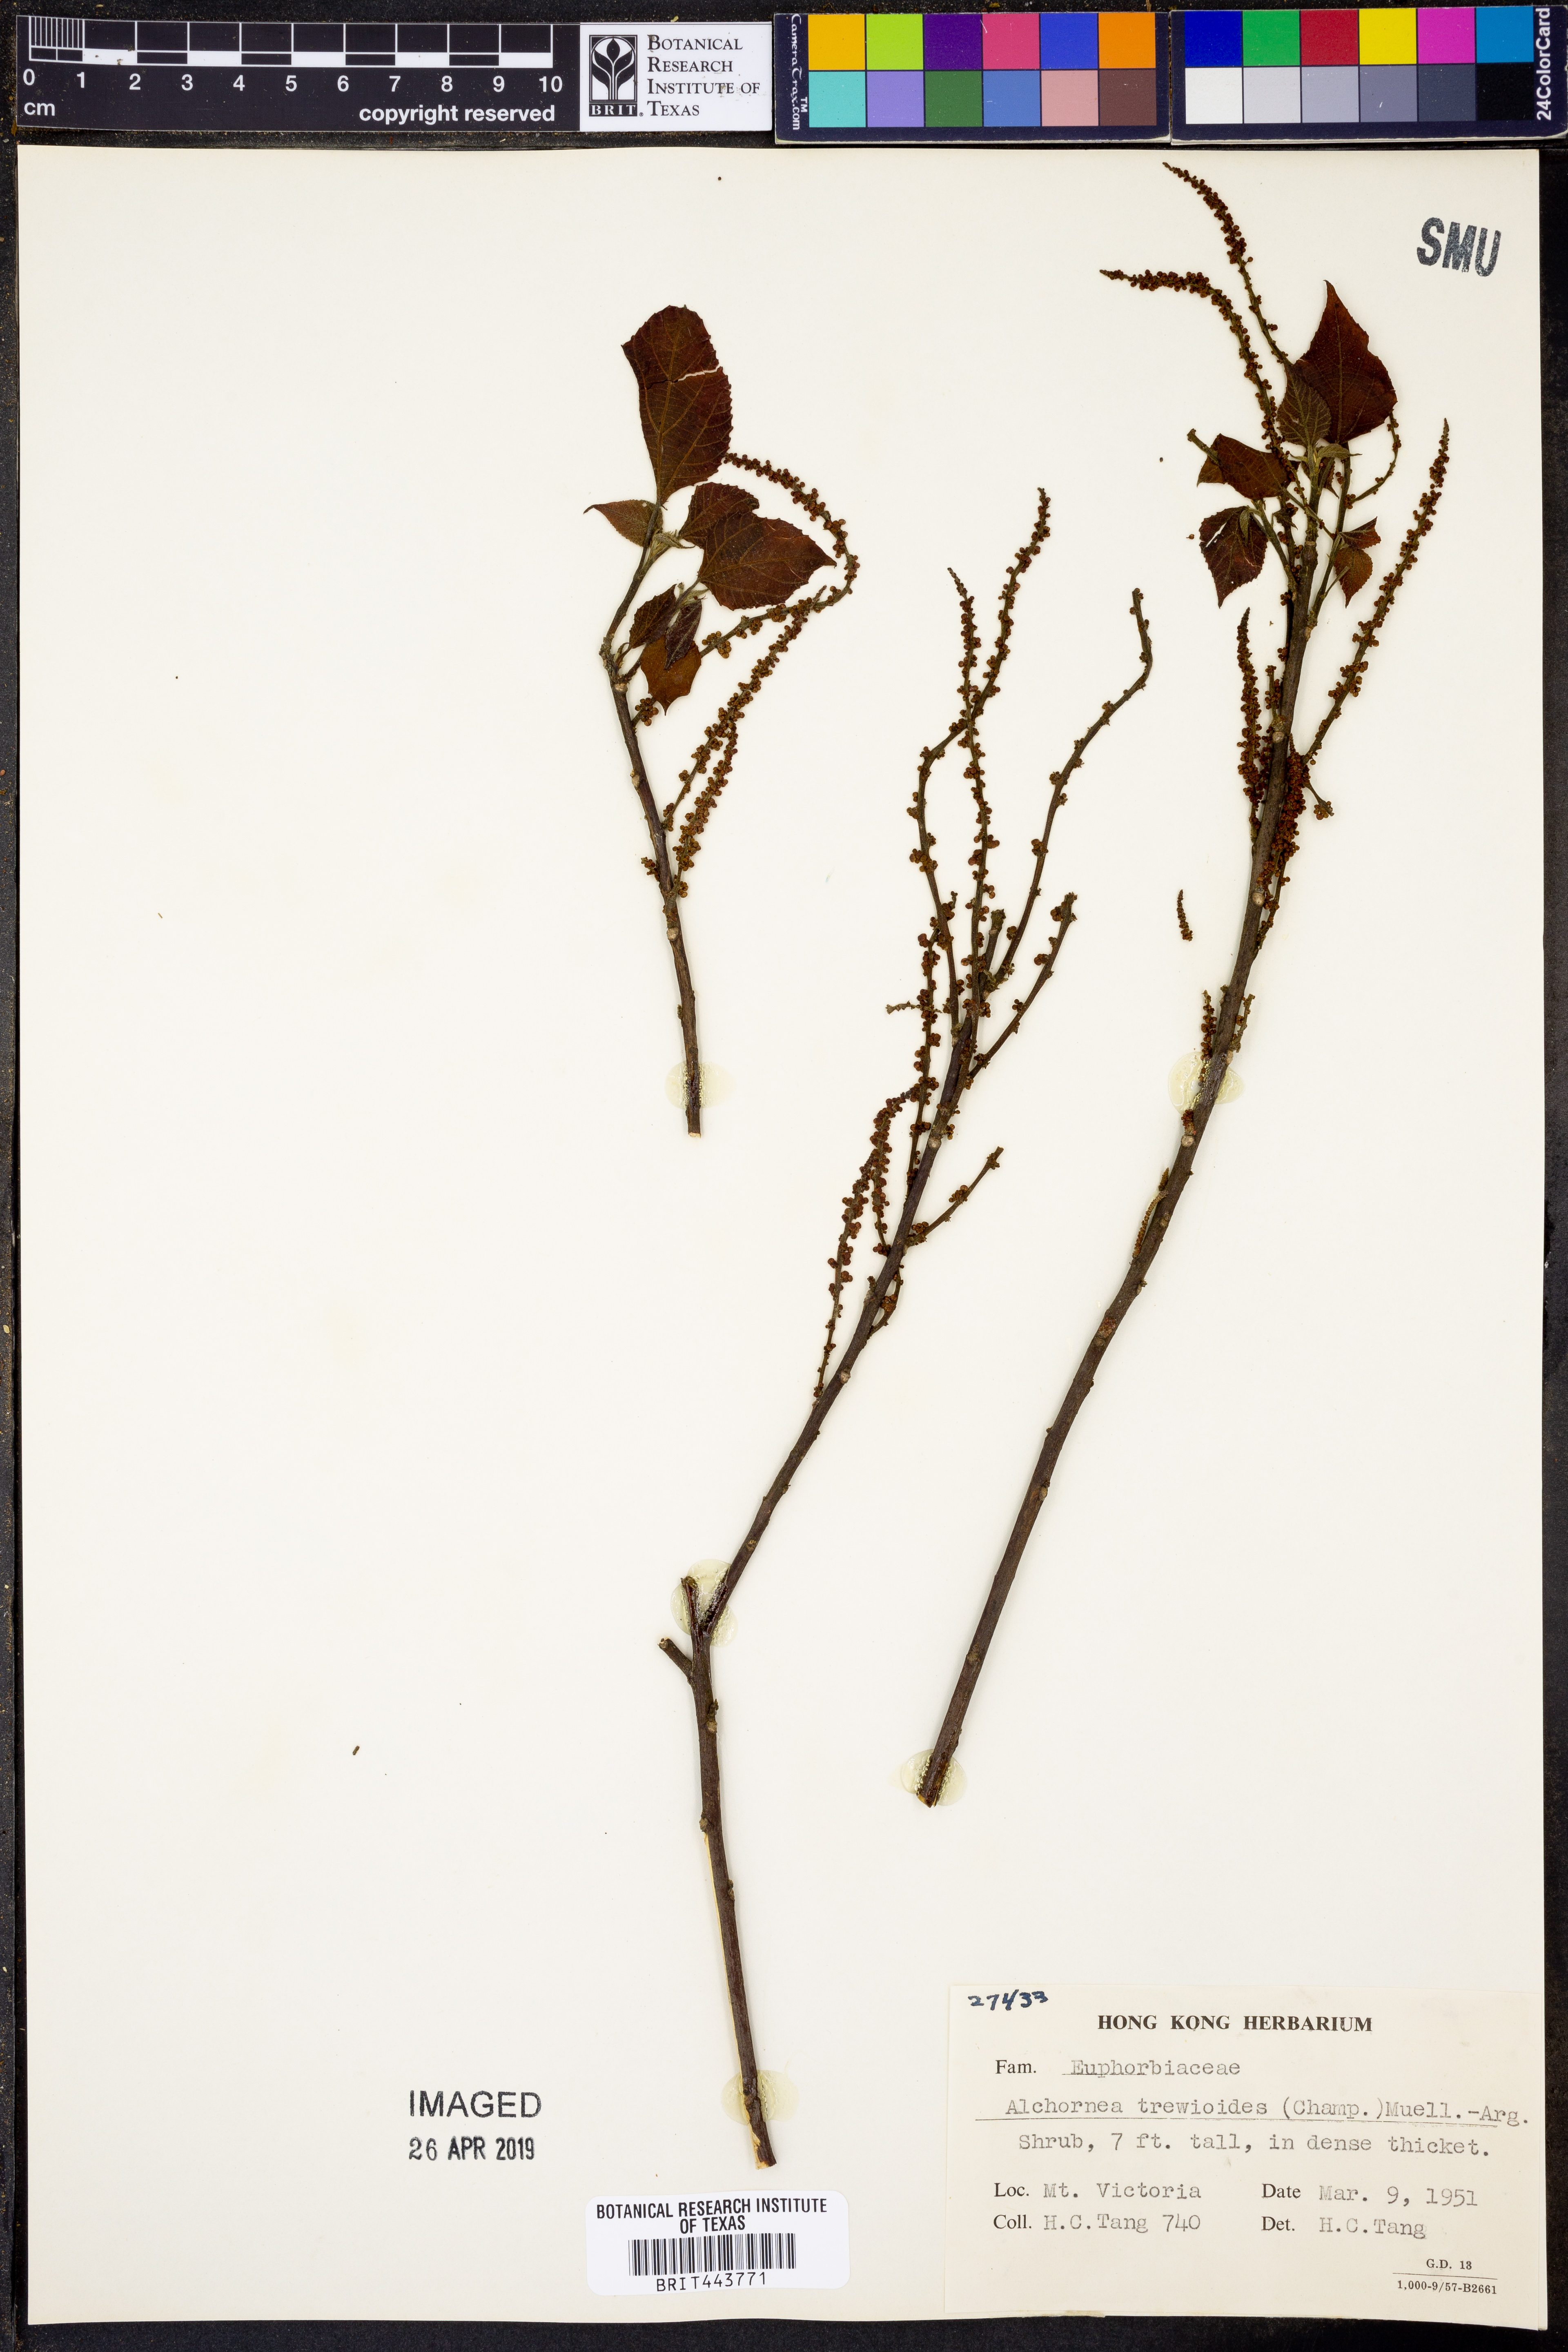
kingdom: Plantae
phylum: Tracheophyta
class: Magnoliopsida
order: Malpighiales
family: Euphorbiaceae
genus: Alchornea
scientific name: Alchornea trewioides
